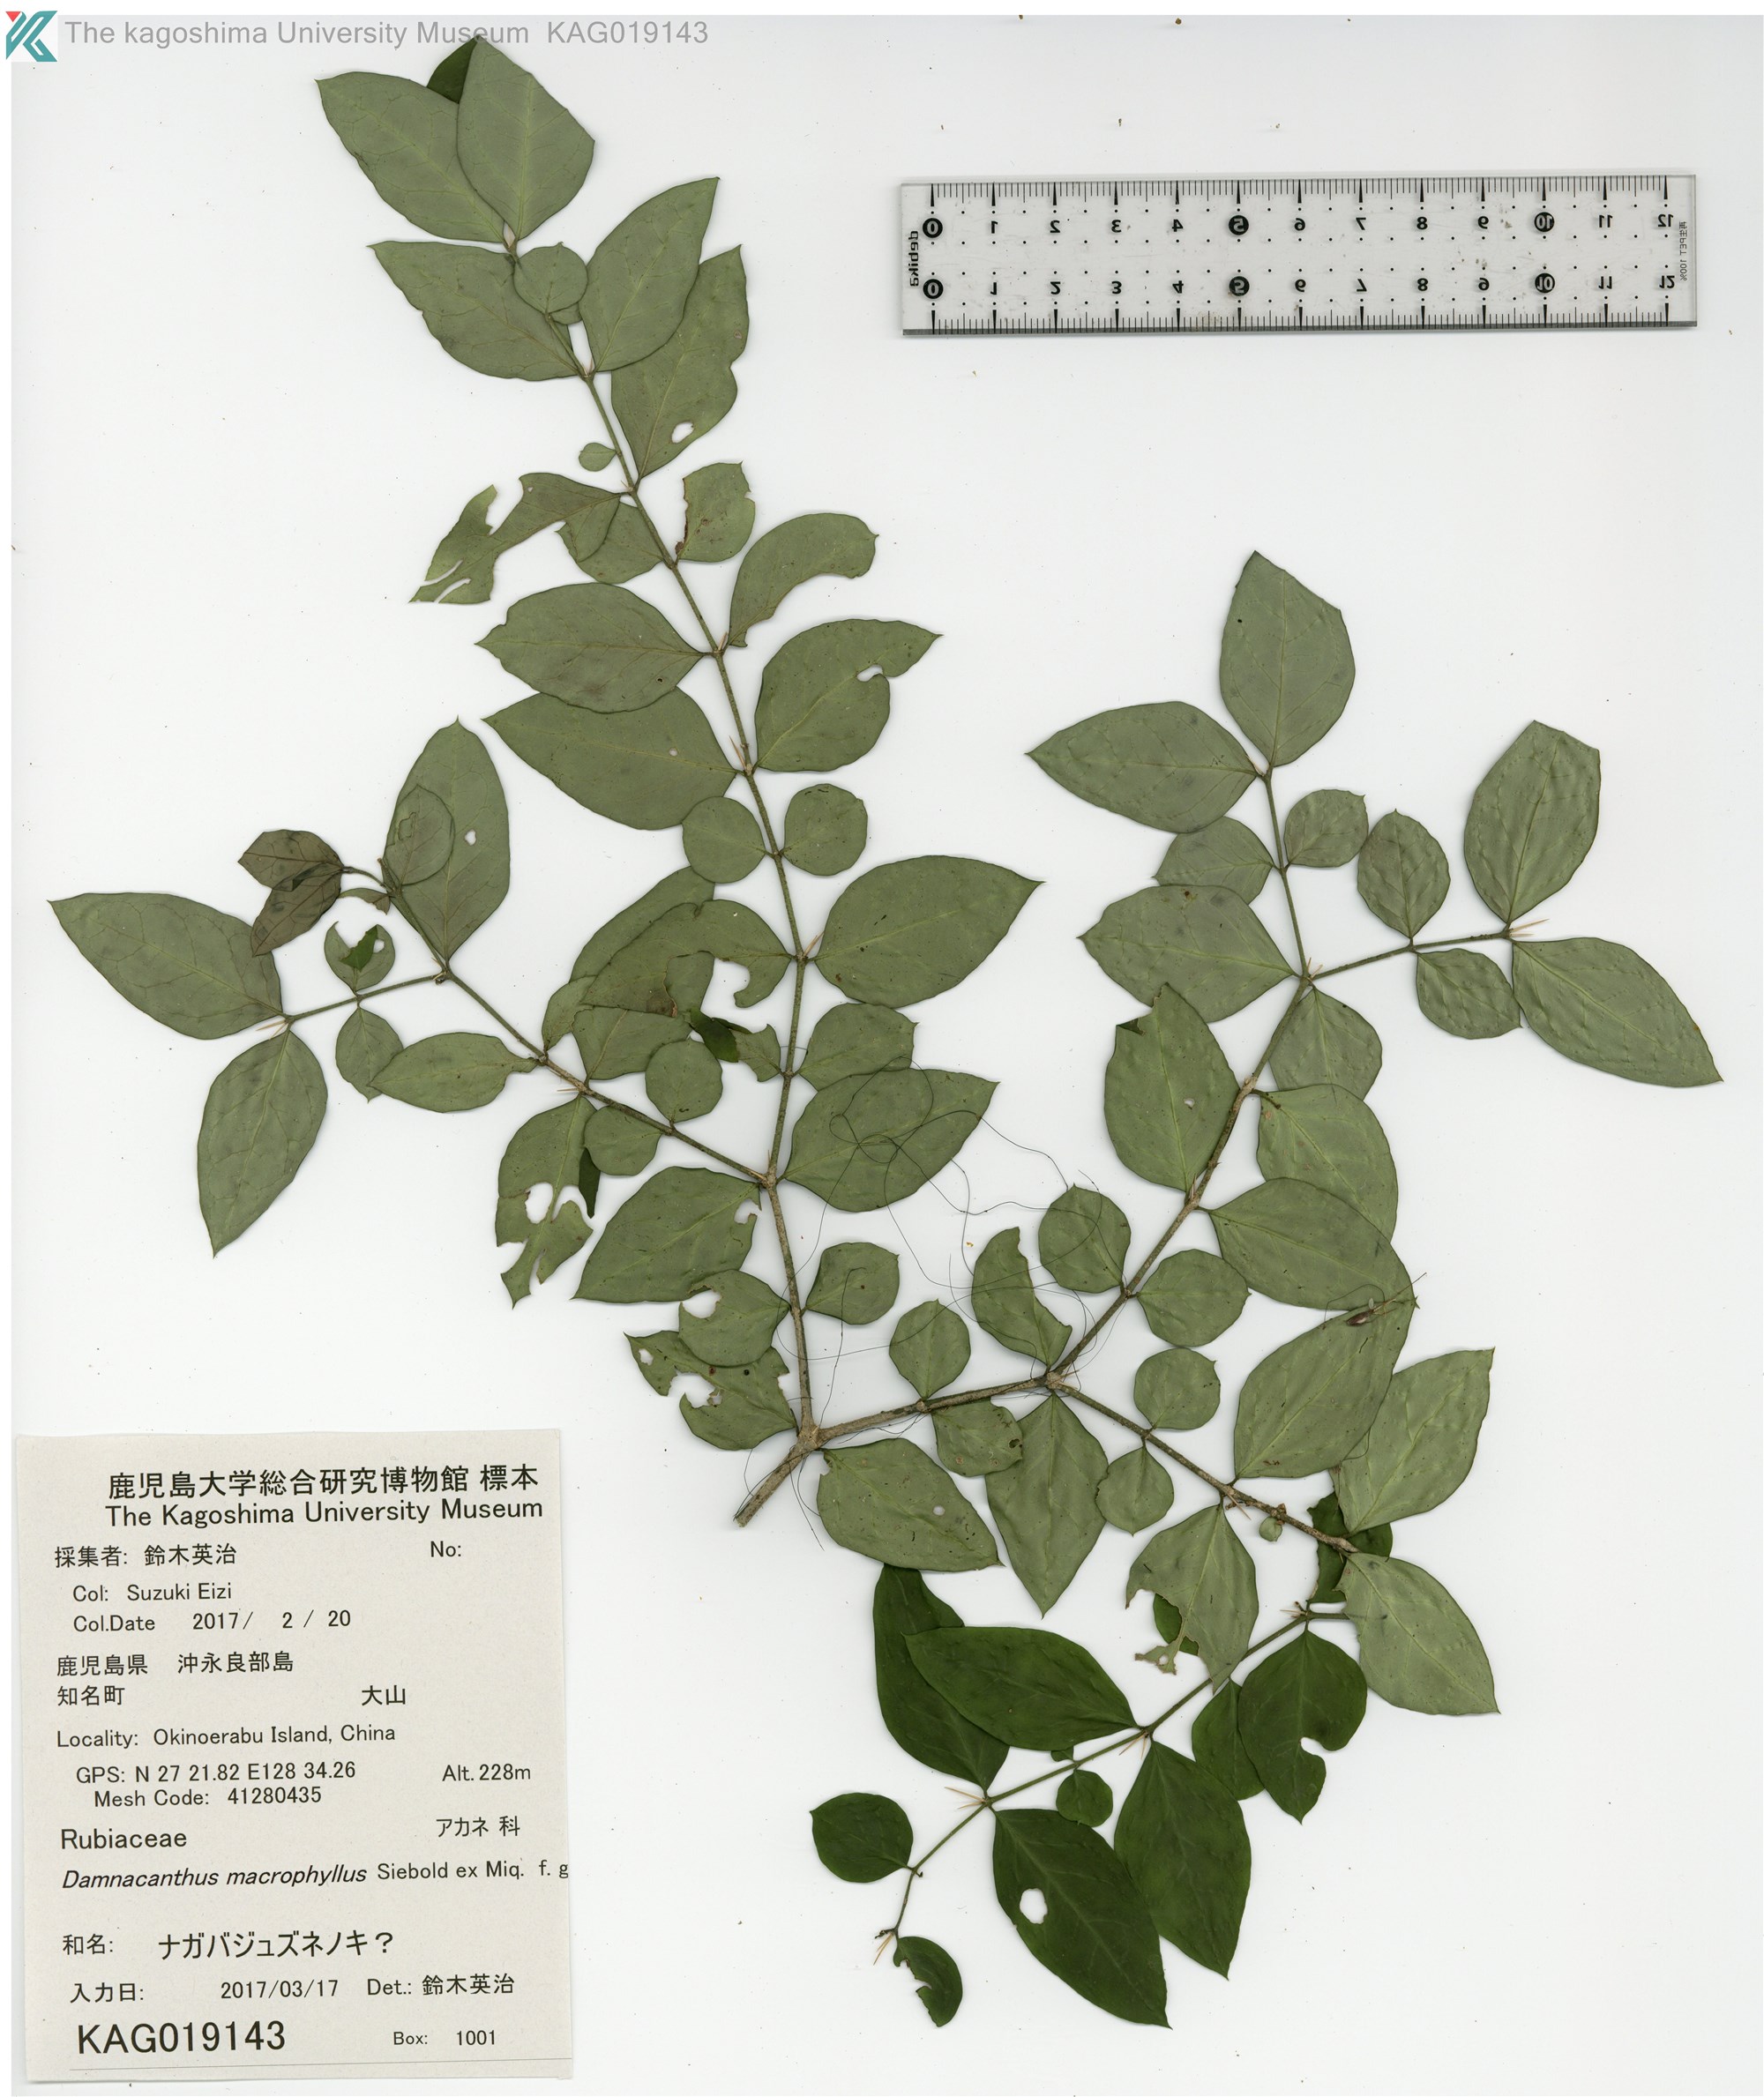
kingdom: Plantae
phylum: Tracheophyta
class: Magnoliopsida
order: Gentianales
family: Rubiaceae
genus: Damnacanthus
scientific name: Damnacanthus
